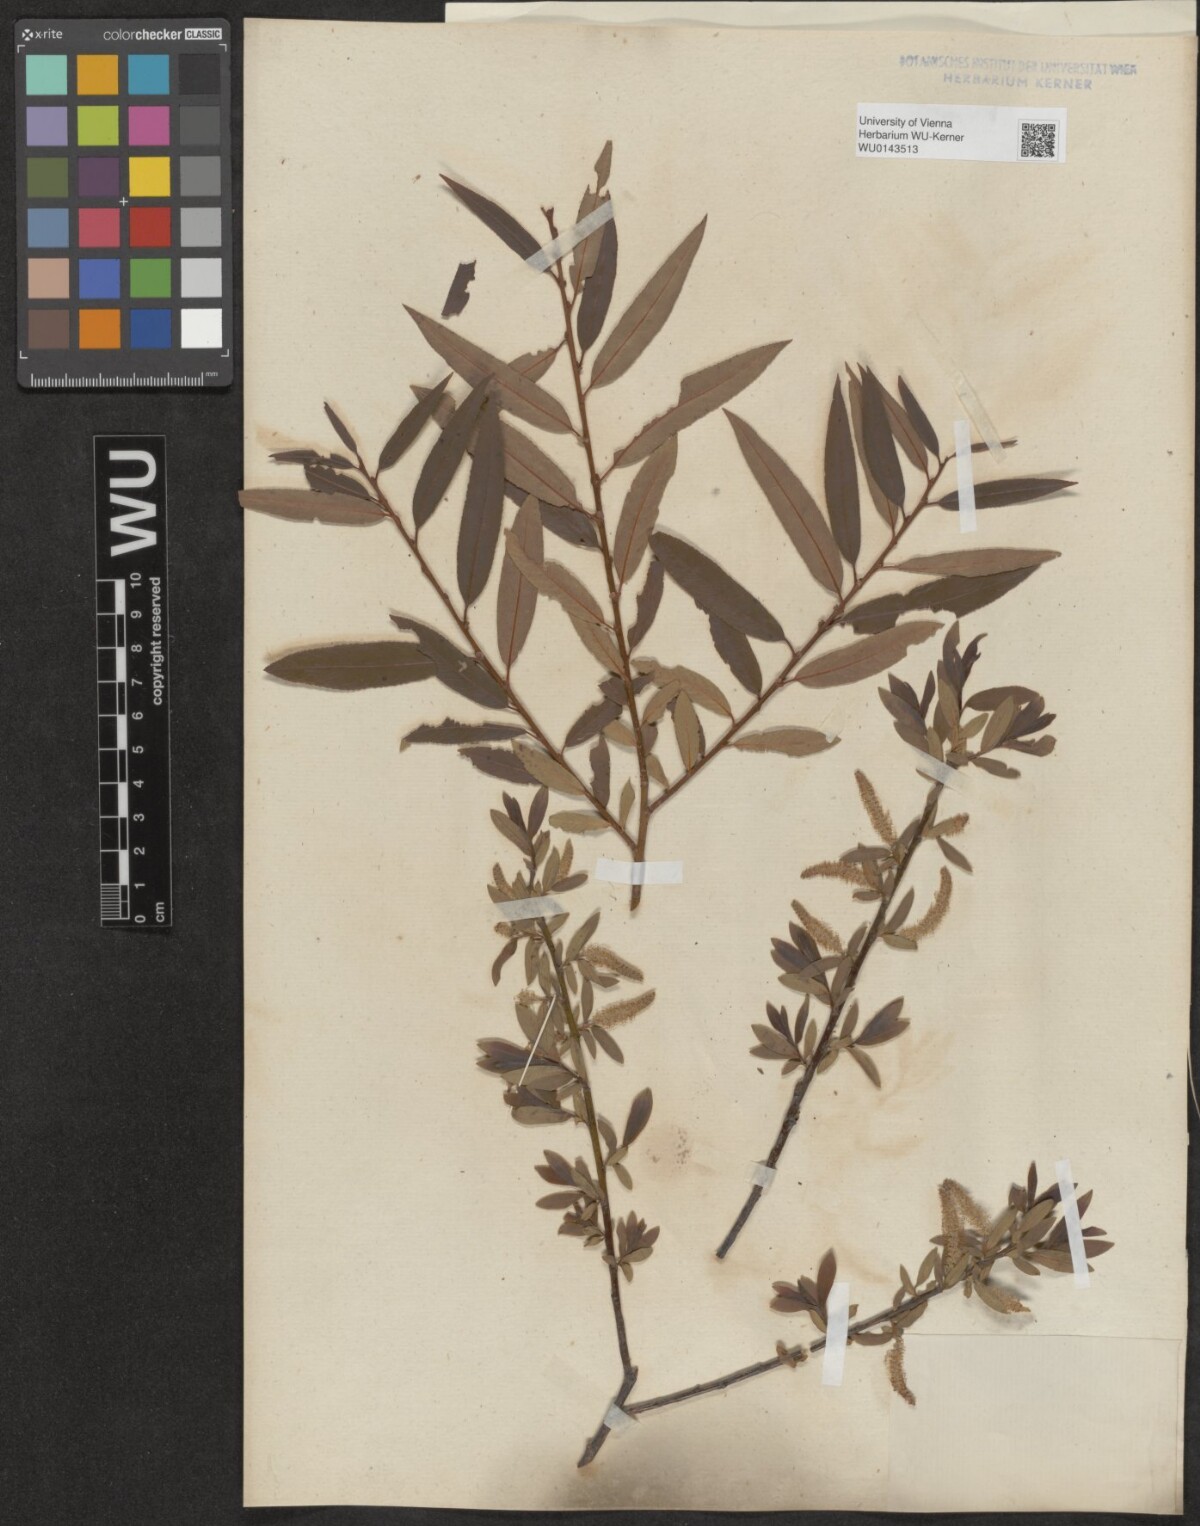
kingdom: Plantae
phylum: Tracheophyta
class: Magnoliopsida
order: Malpighiales
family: Salicaceae
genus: Salix
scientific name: Salix triandra
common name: Almond willow
